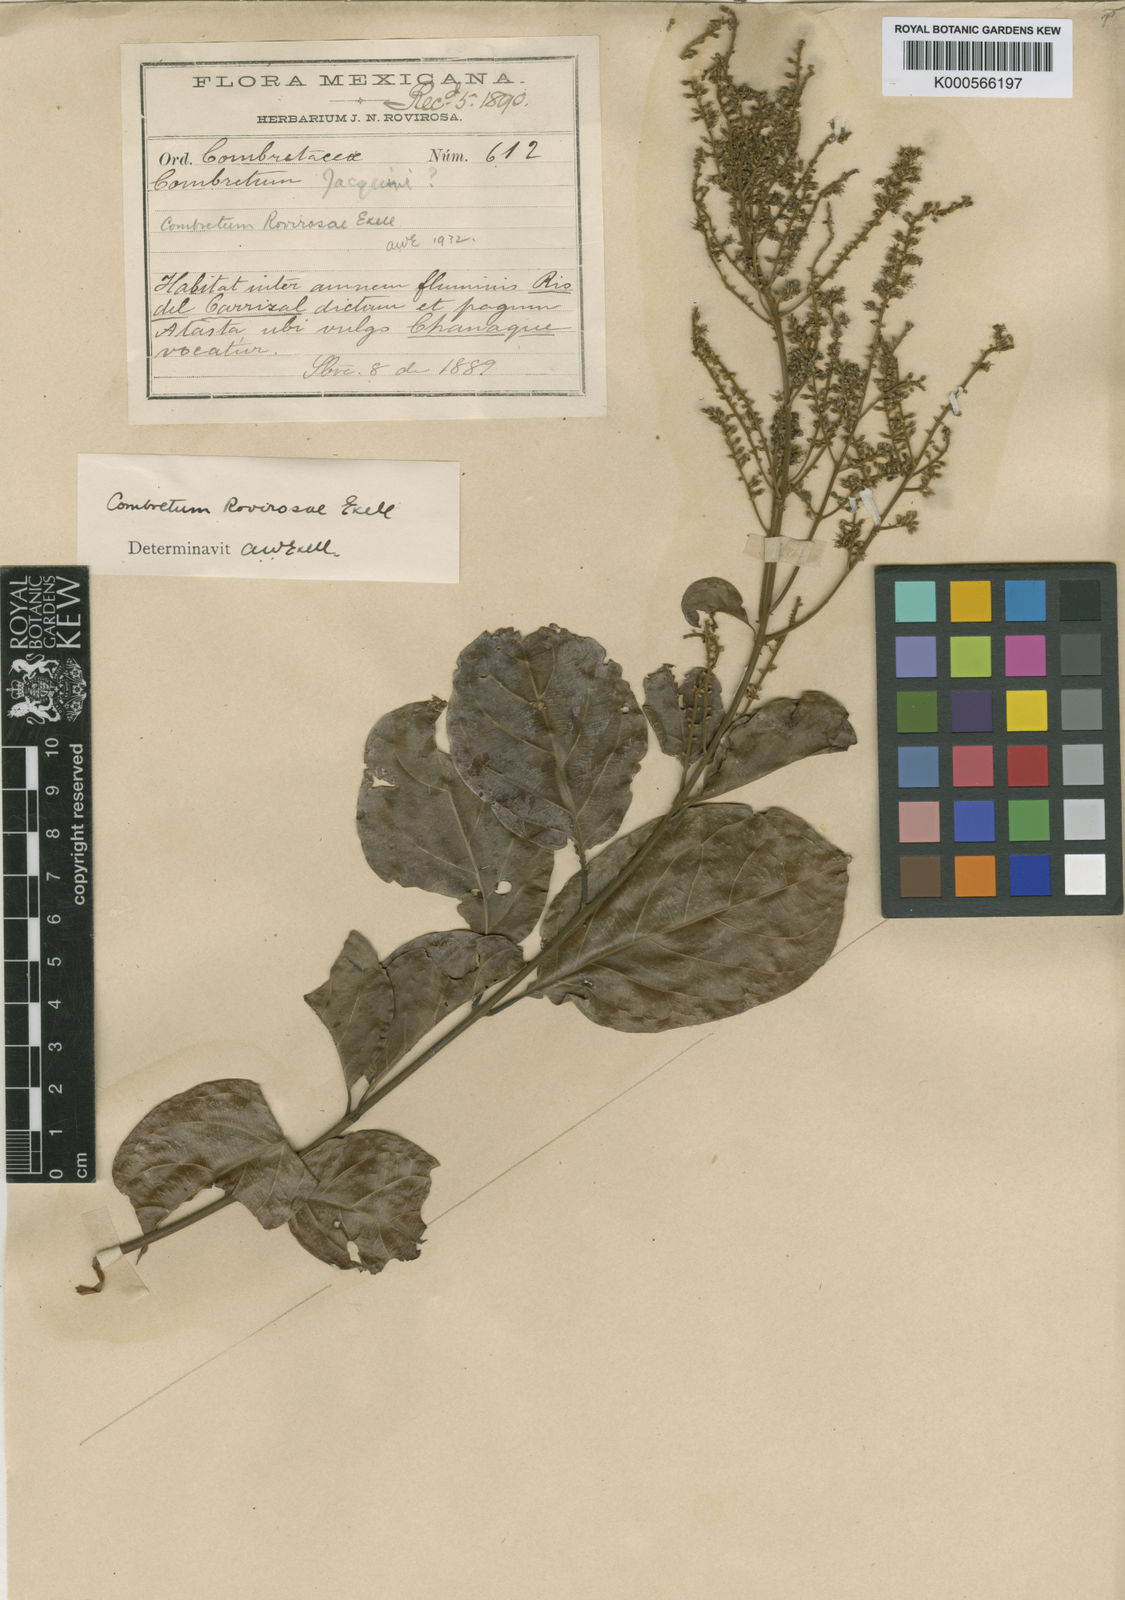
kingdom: Plantae
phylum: Tracheophyta
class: Magnoliopsida
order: Myrtales
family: Combretaceae
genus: Combretum
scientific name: Combretum rovirosae
